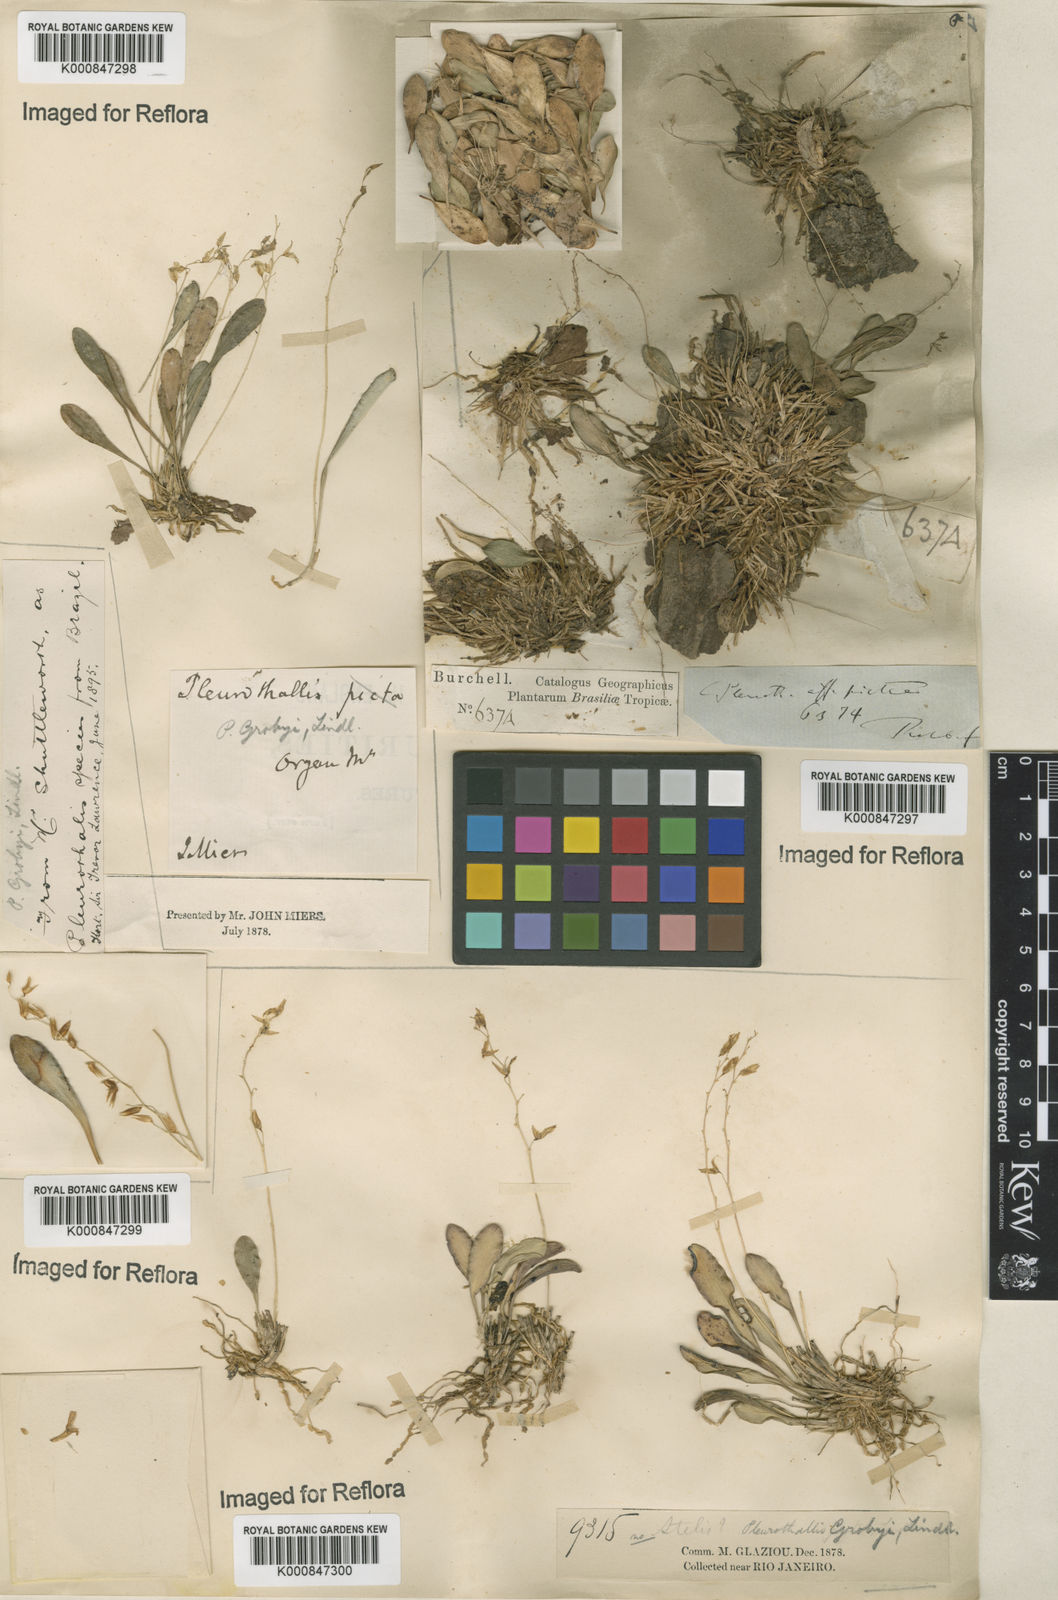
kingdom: Plantae
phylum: Tracheophyta
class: Liliopsida
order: Asparagales
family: Orchidaceae
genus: Specklinia
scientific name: Specklinia grobyi
